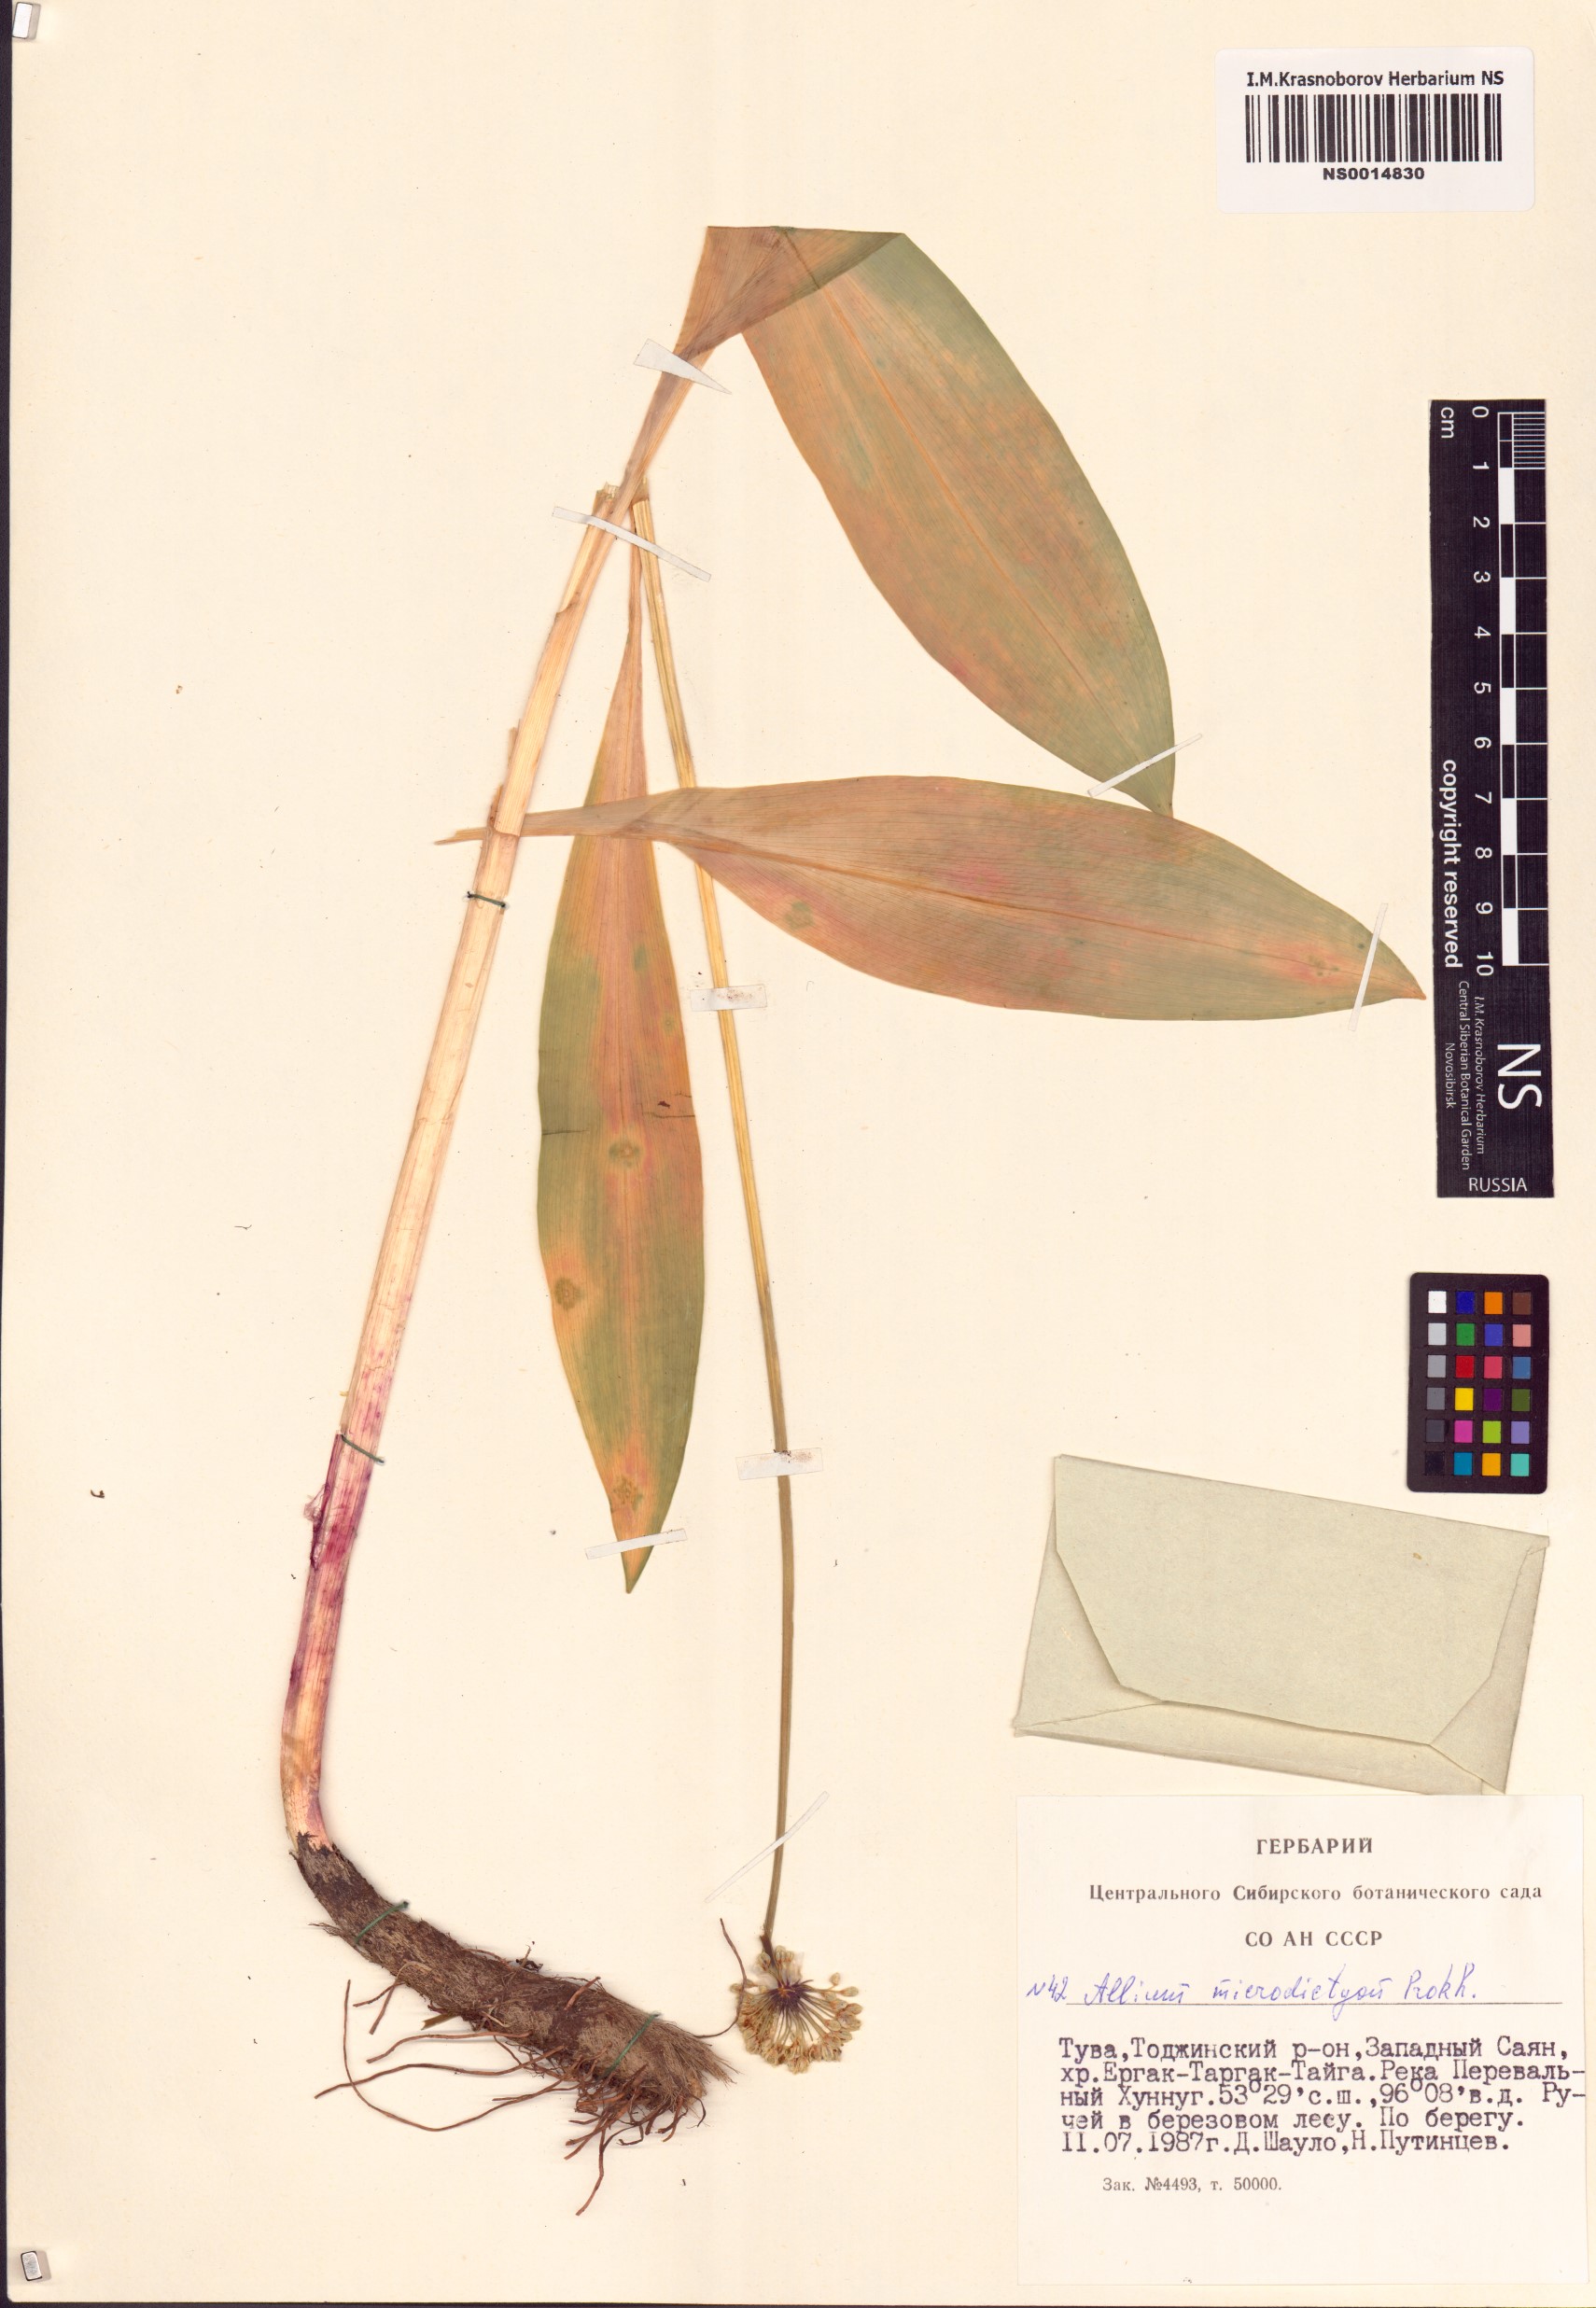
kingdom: Plantae
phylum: Tracheophyta
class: Liliopsida
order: Asparagales
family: Amaryllidaceae
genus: Allium
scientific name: Allium microdictyon
